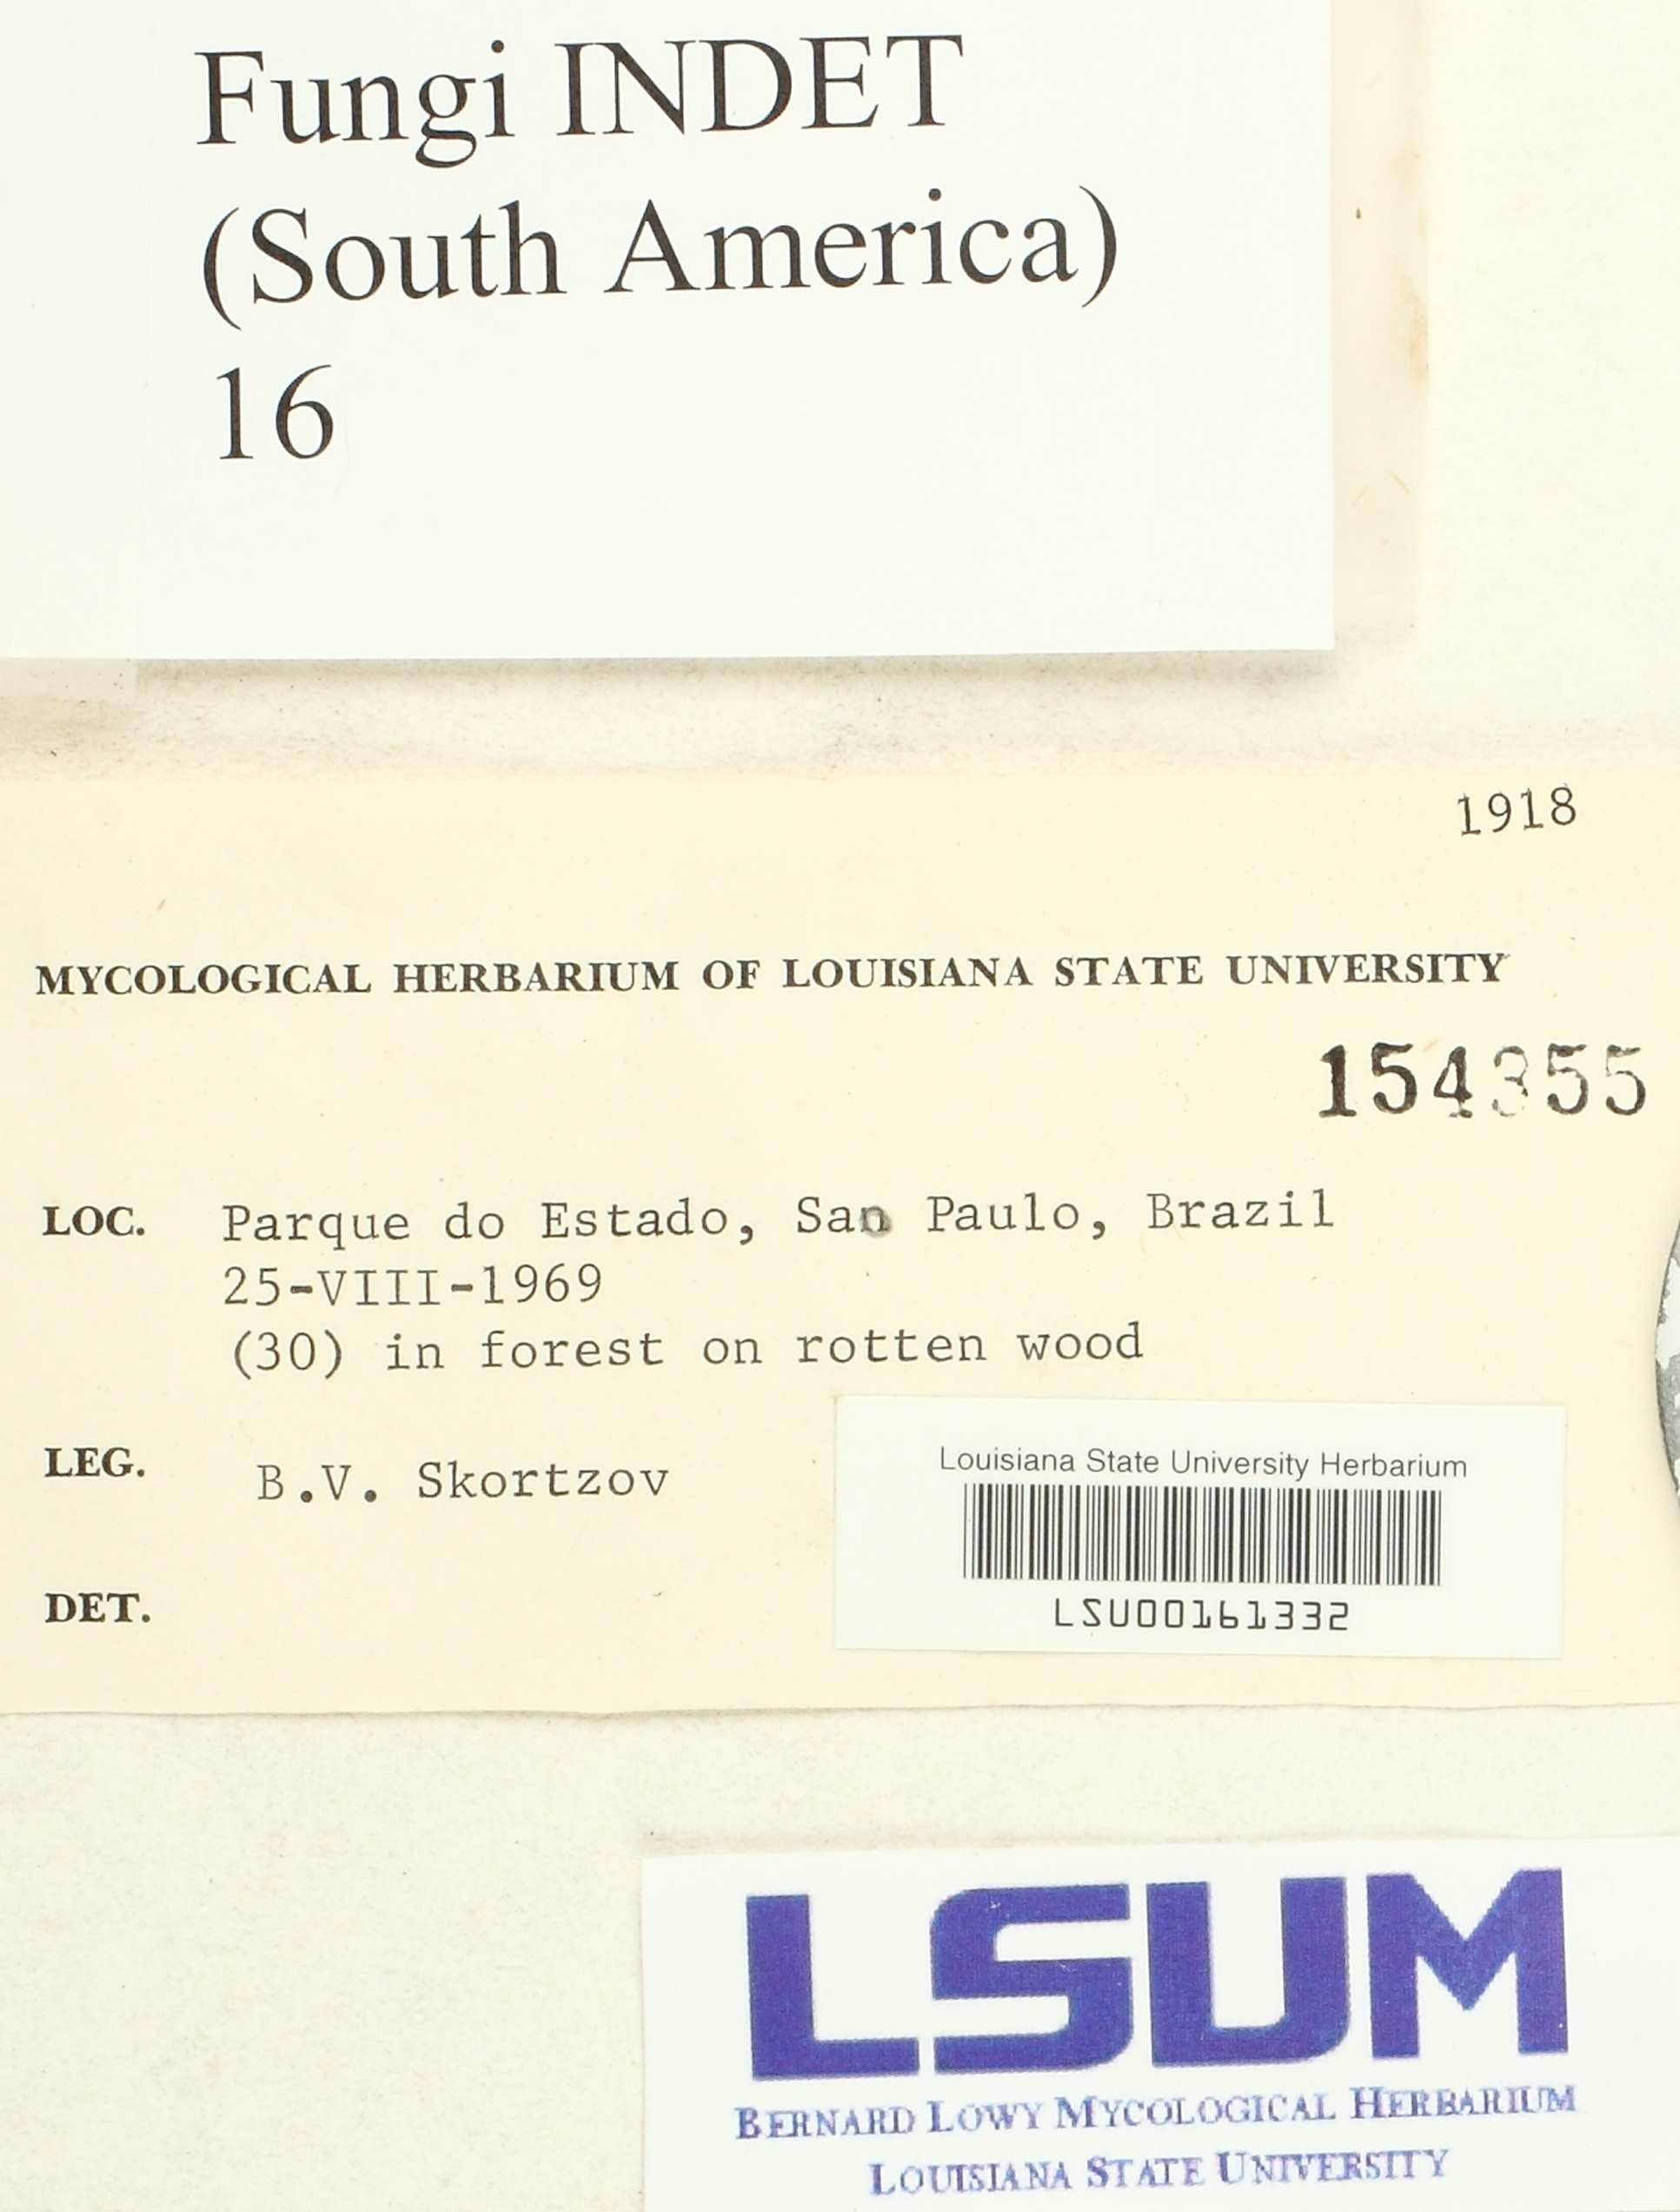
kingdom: Fungi
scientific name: Fungi
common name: Fungi
